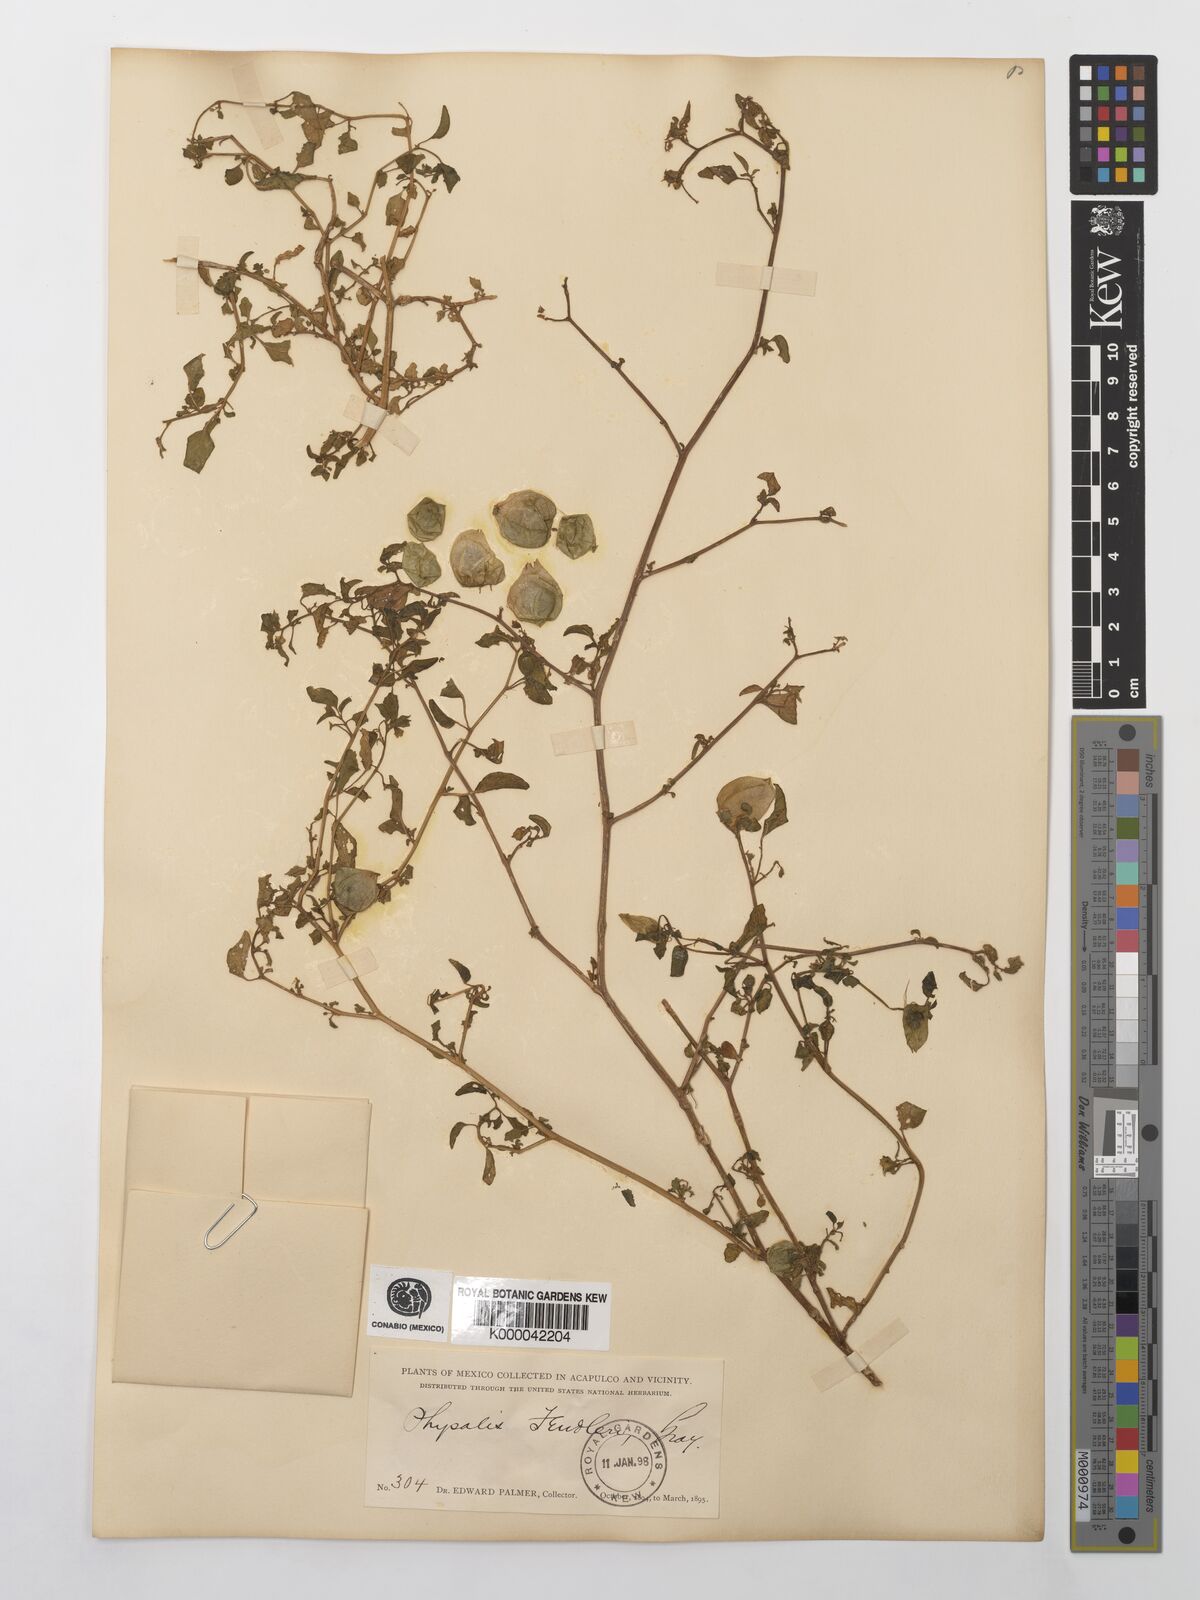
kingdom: Plantae
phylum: Tracheophyta
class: Magnoliopsida
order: Solanales
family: Solanaceae
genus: Physalis
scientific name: Physalis fendleri
